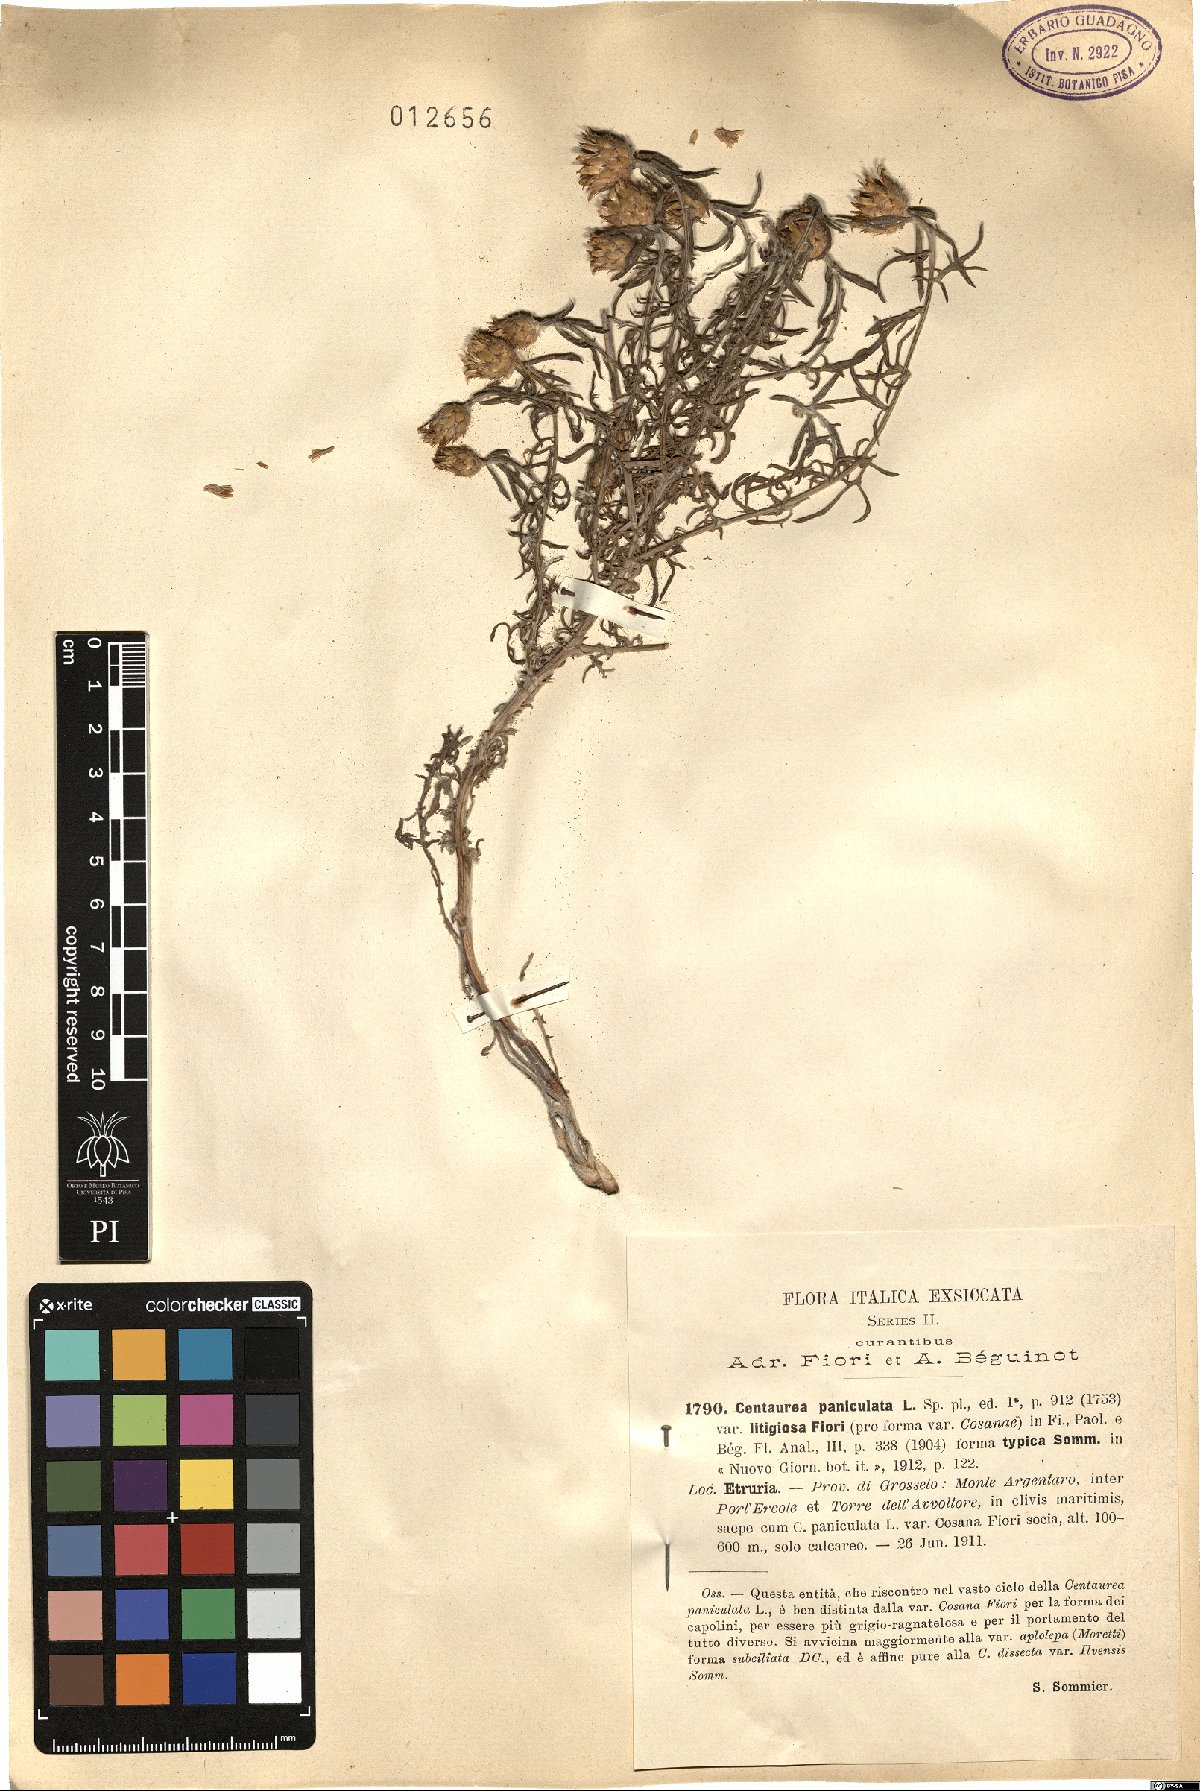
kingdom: Plantae
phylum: Tracheophyta
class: Magnoliopsida
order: Asterales
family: Asteraceae
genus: Centaurea
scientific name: Centaurea litigiosa
